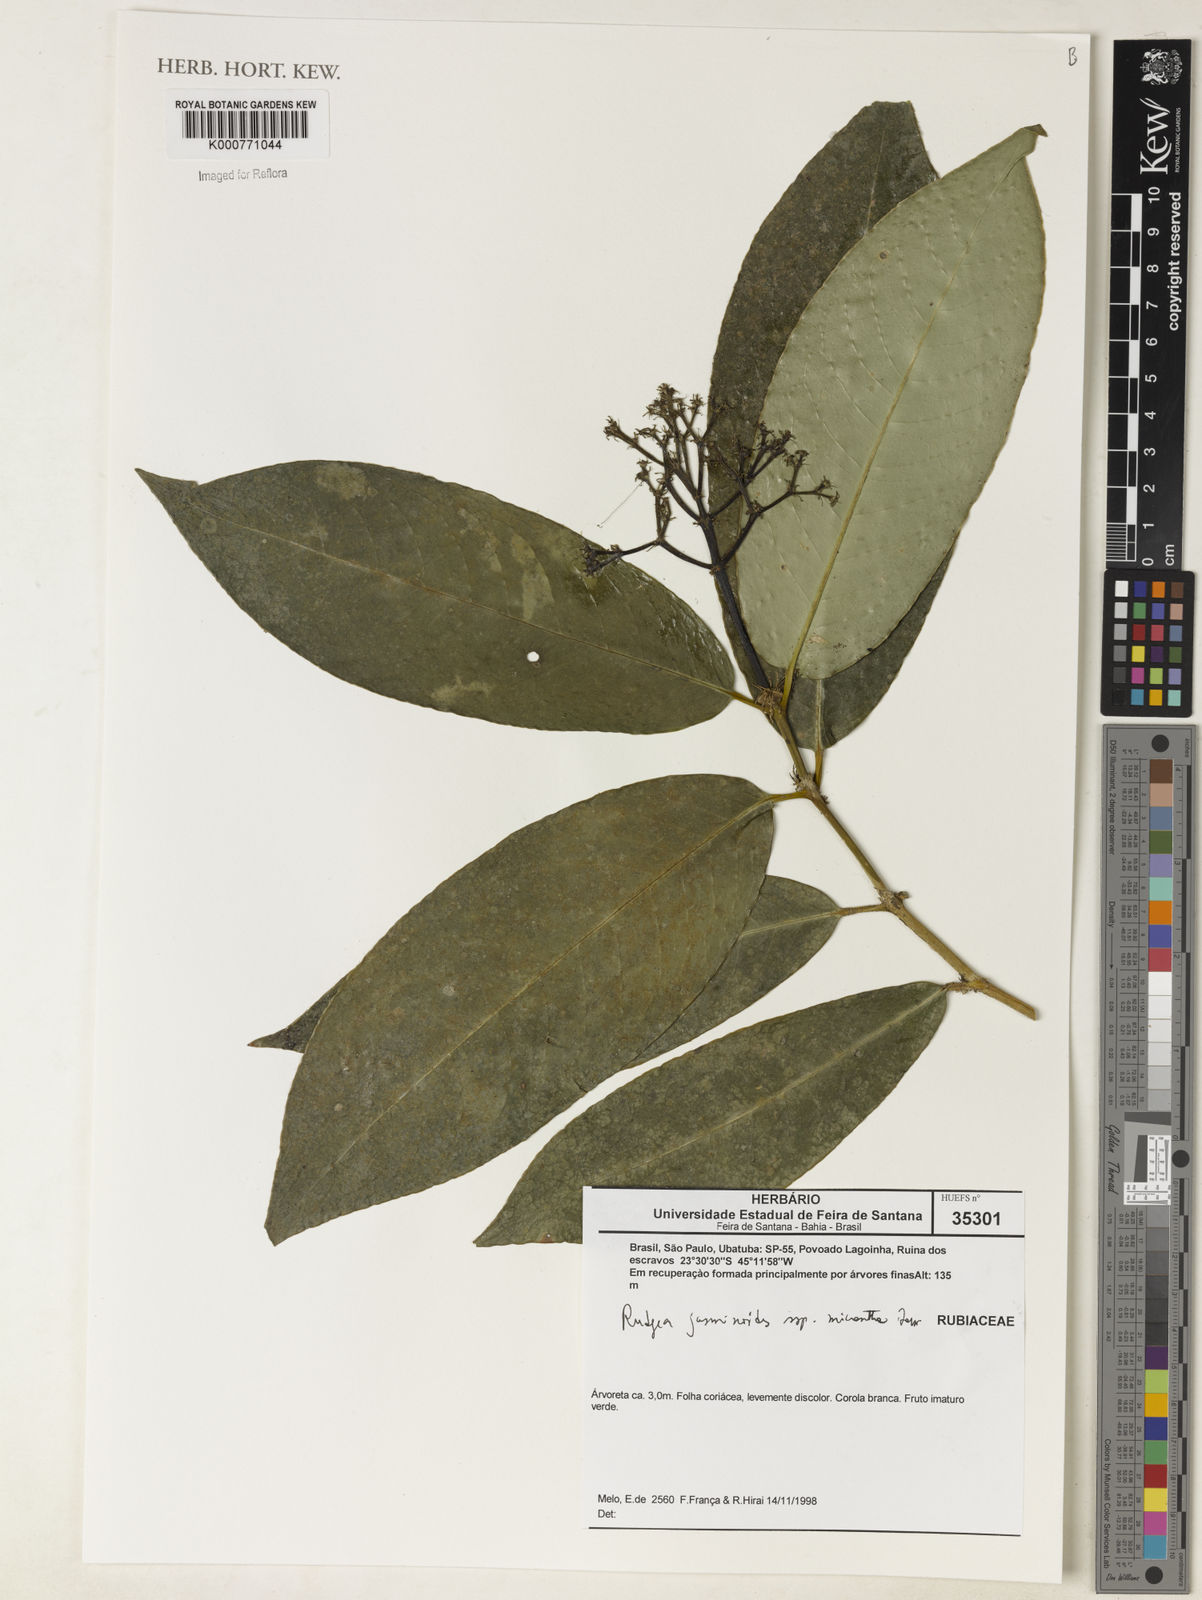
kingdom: Plantae
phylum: Tracheophyta
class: Magnoliopsida
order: Gentianales
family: Rubiaceae
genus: Rudgea
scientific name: Rudgea
